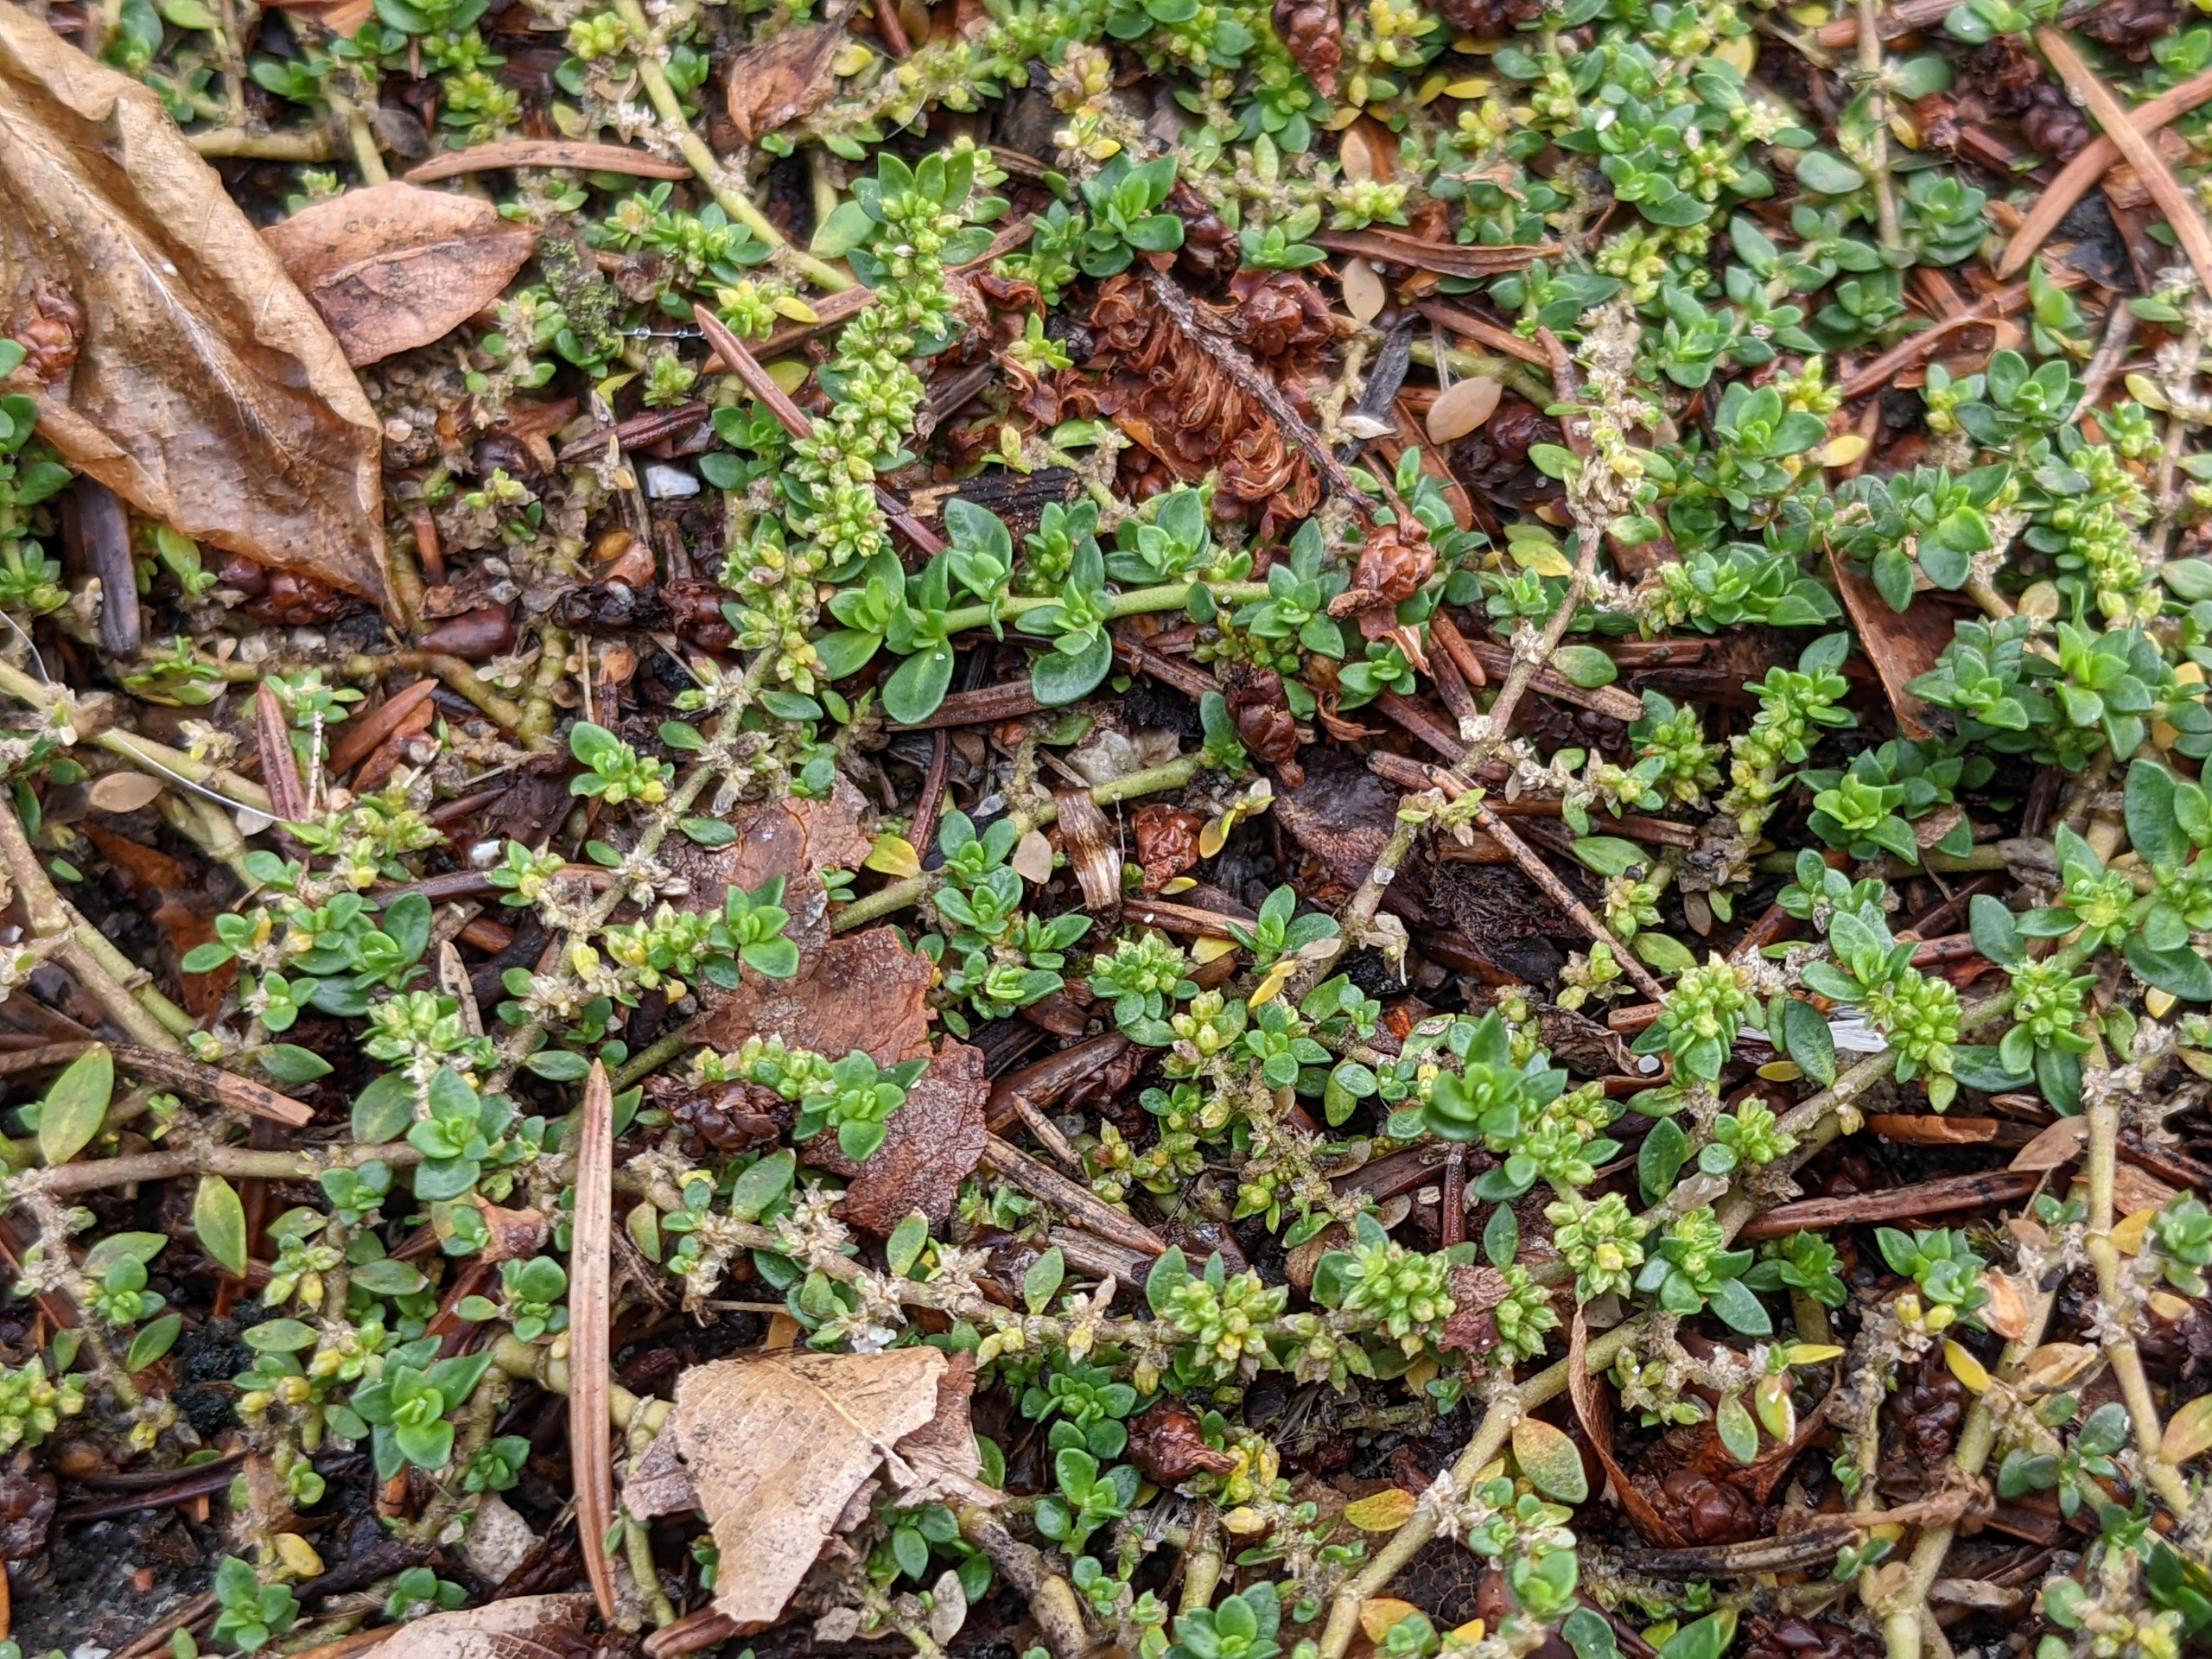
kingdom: Plantae
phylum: Tracheophyta
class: Magnoliopsida
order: Caryophyllales
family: Caryophyllaceae
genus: Herniaria
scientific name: Herniaria glabra
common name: Brudurt
